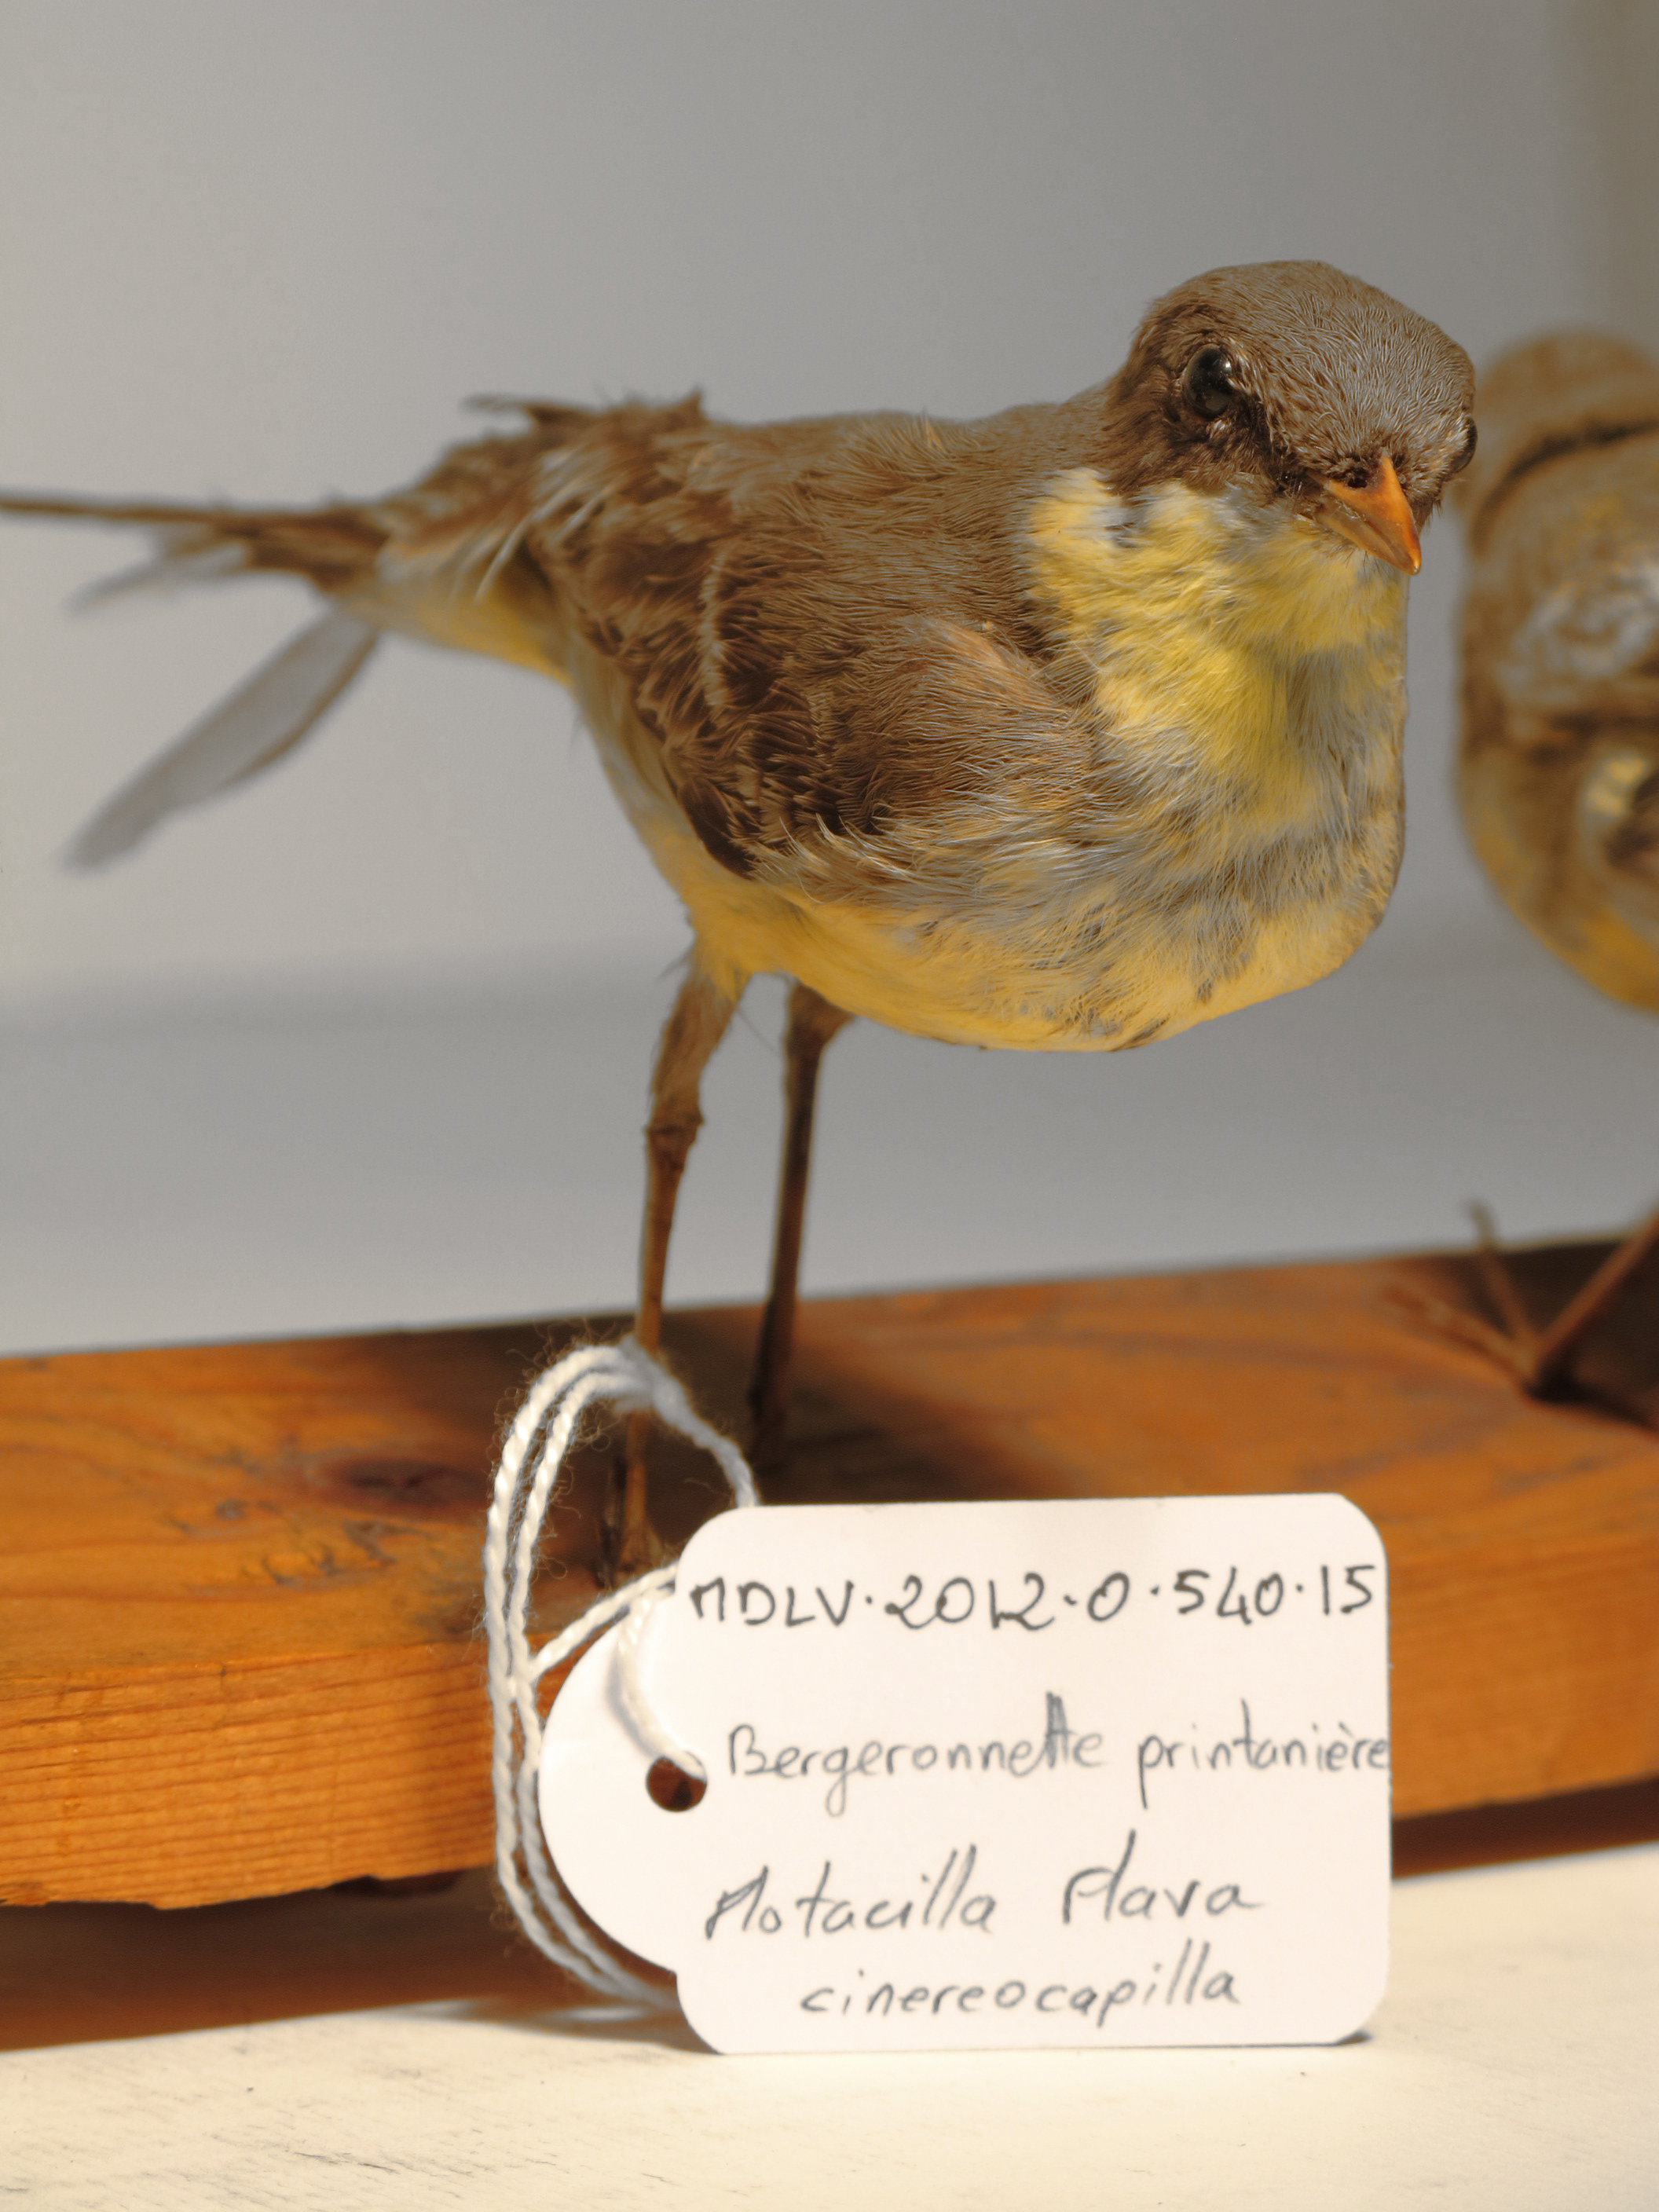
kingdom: Animalia
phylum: Chordata
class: Aves
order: Passeriformes
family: Motacillidae
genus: Motacilla
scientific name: Motacilla flava
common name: Ashy-headed Wagtail
